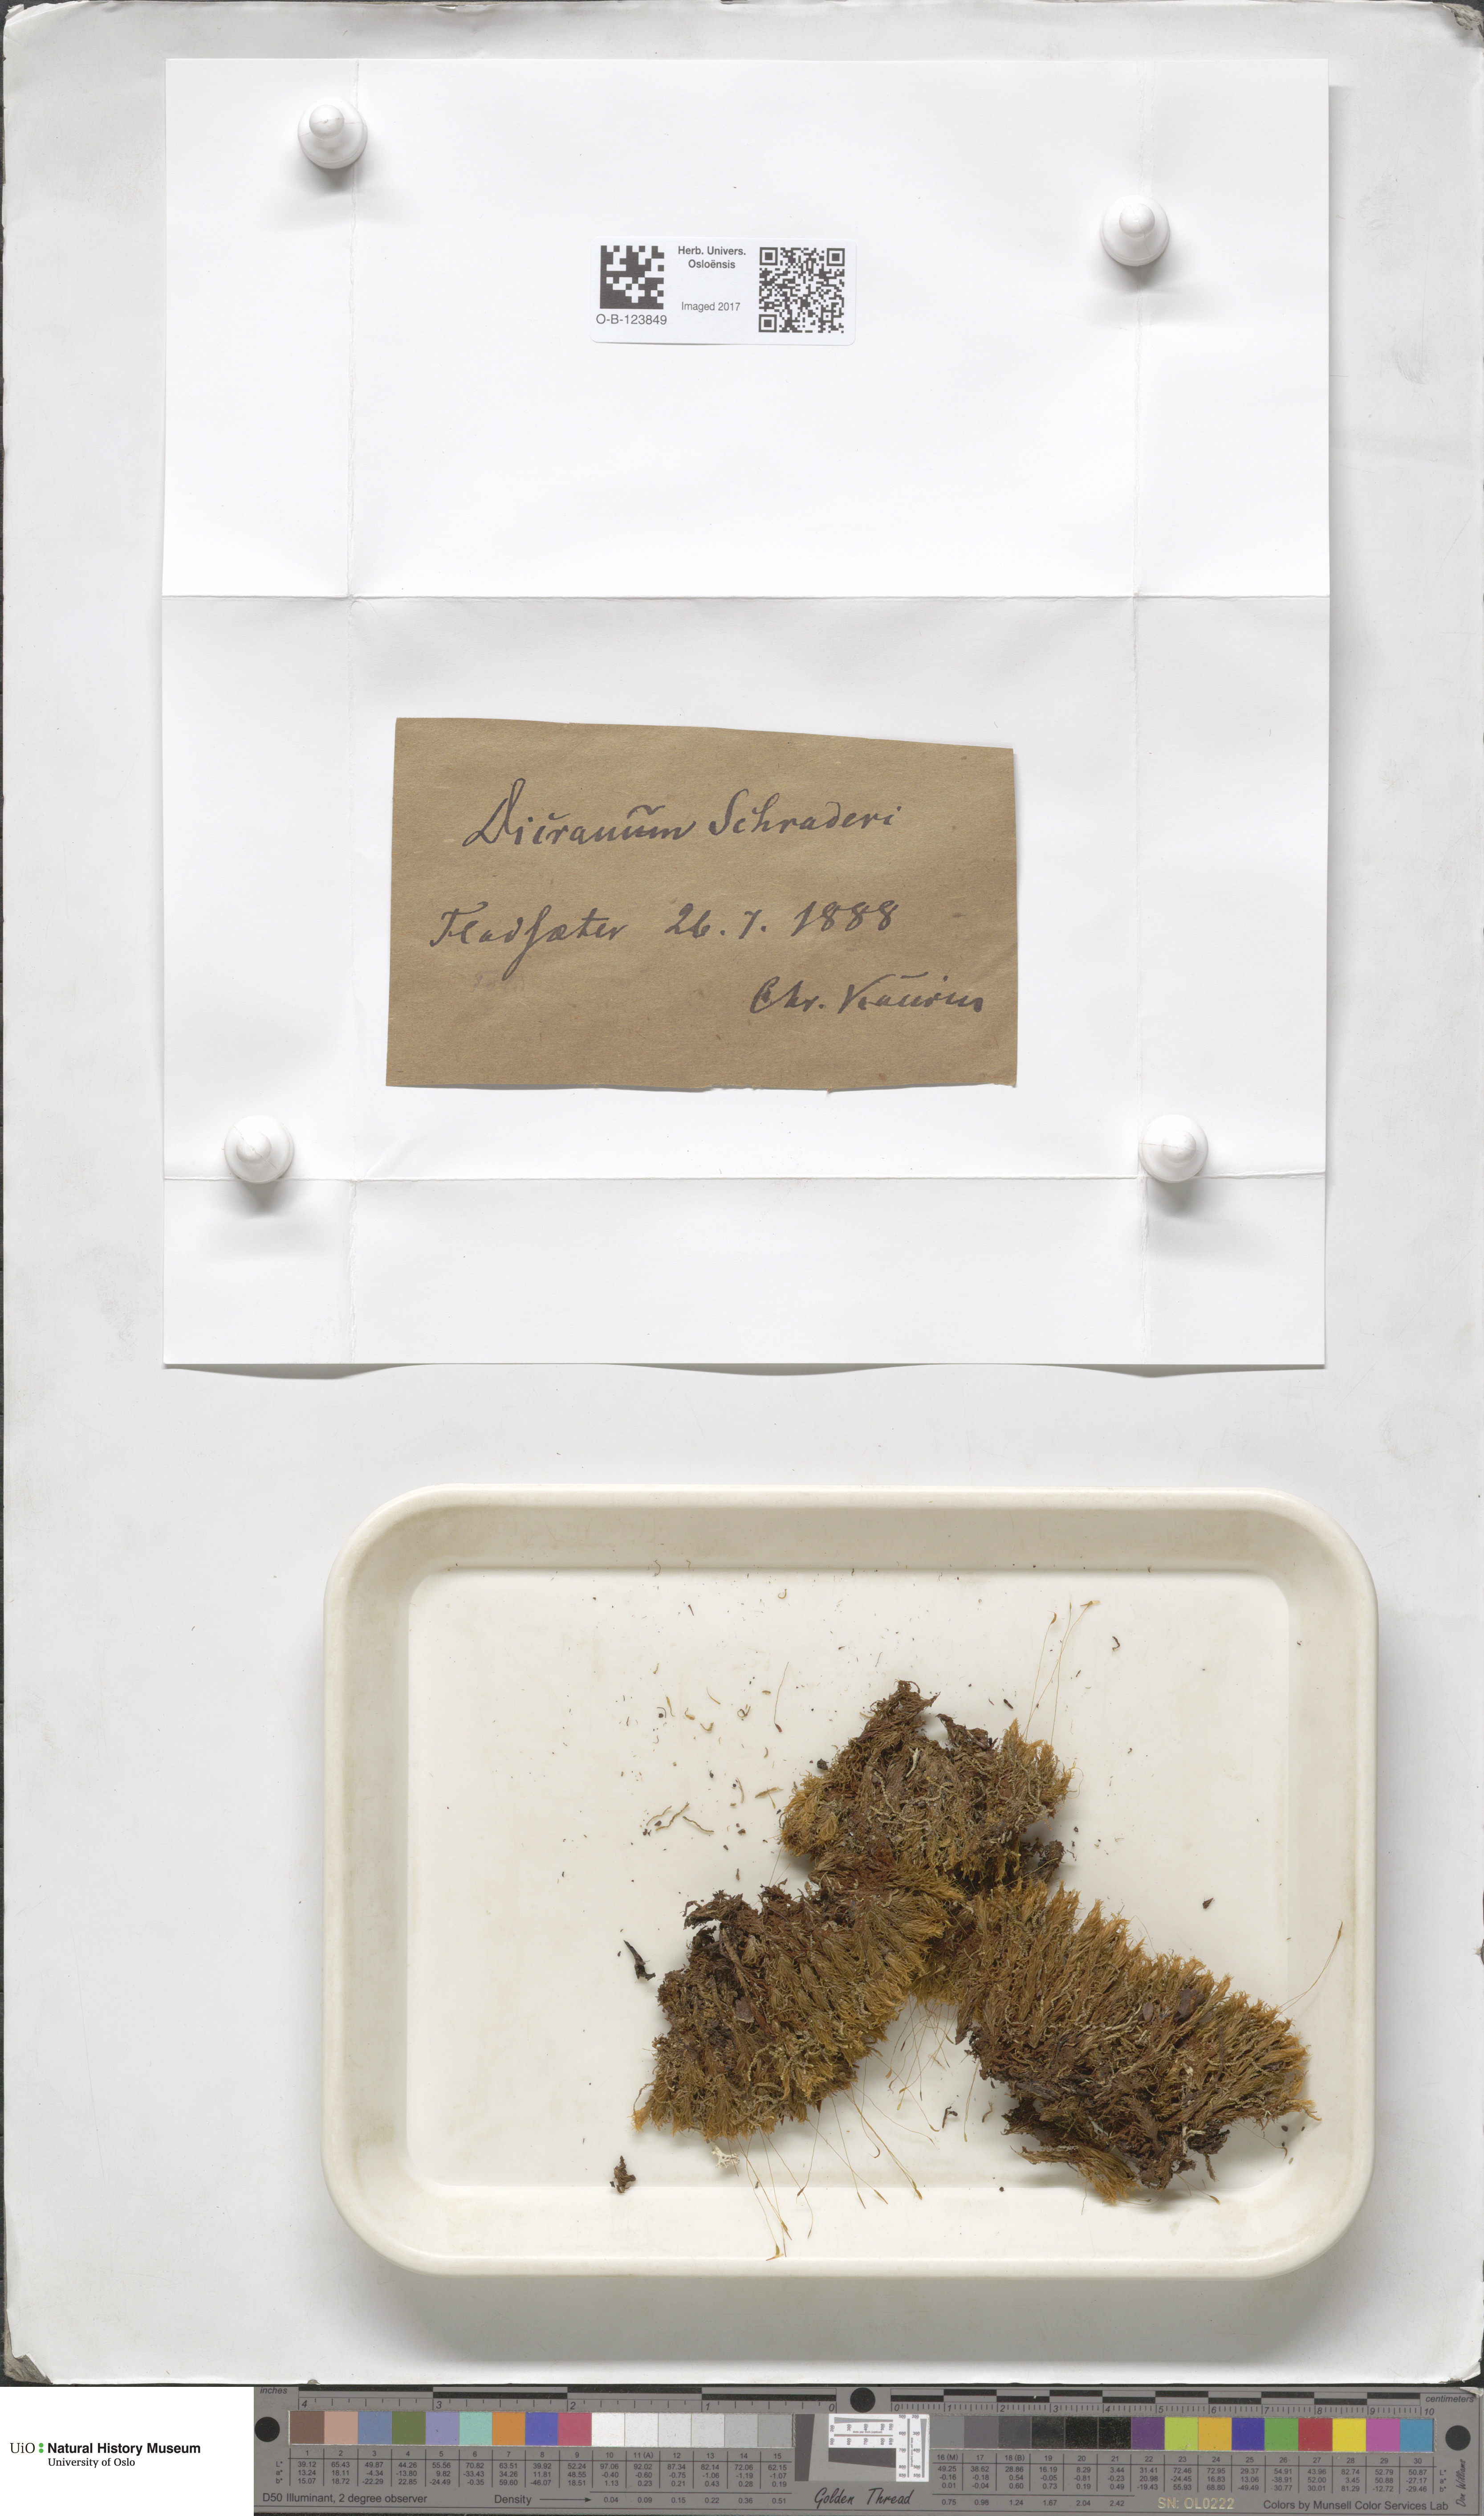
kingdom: Plantae
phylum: Bryophyta
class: Bryopsida
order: Dicranales
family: Dicranaceae
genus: Dicranum
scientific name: Dicranum undulatum
